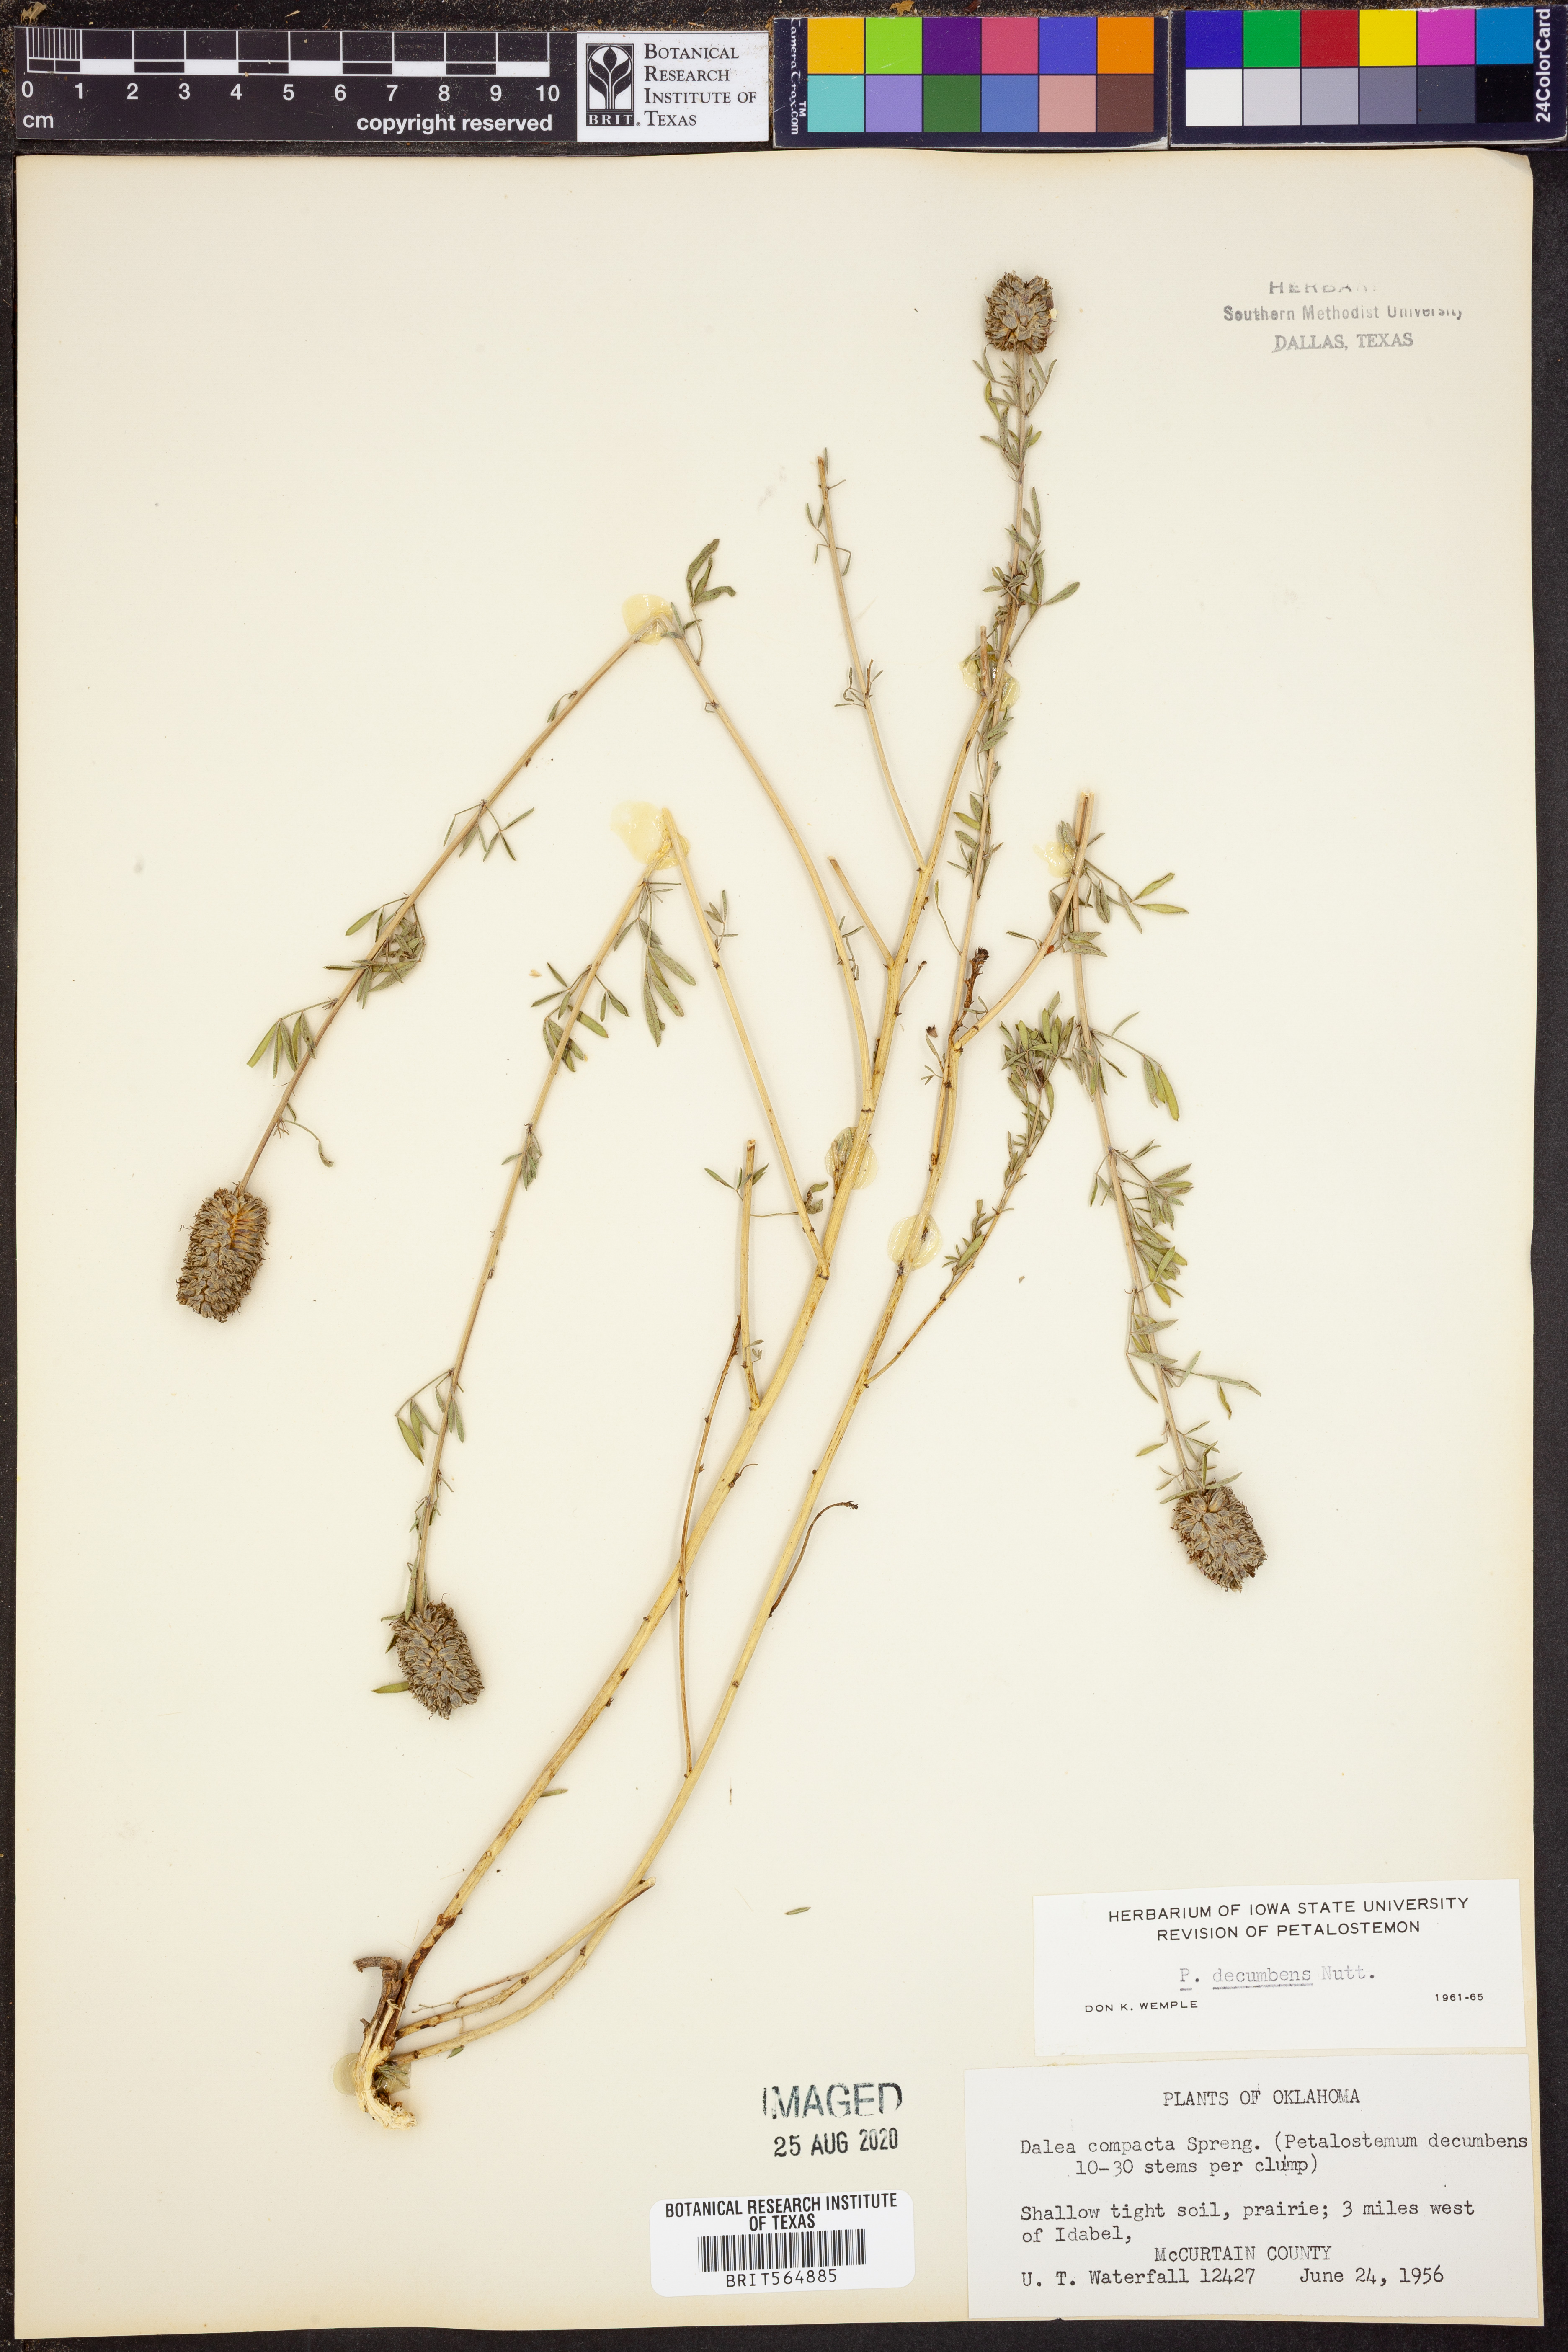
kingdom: Plantae
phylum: Tracheophyta
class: Magnoliopsida
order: Fabales
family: Fabaceae
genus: Dalea
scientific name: Dalea compacta
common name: Compact prairie-clover
